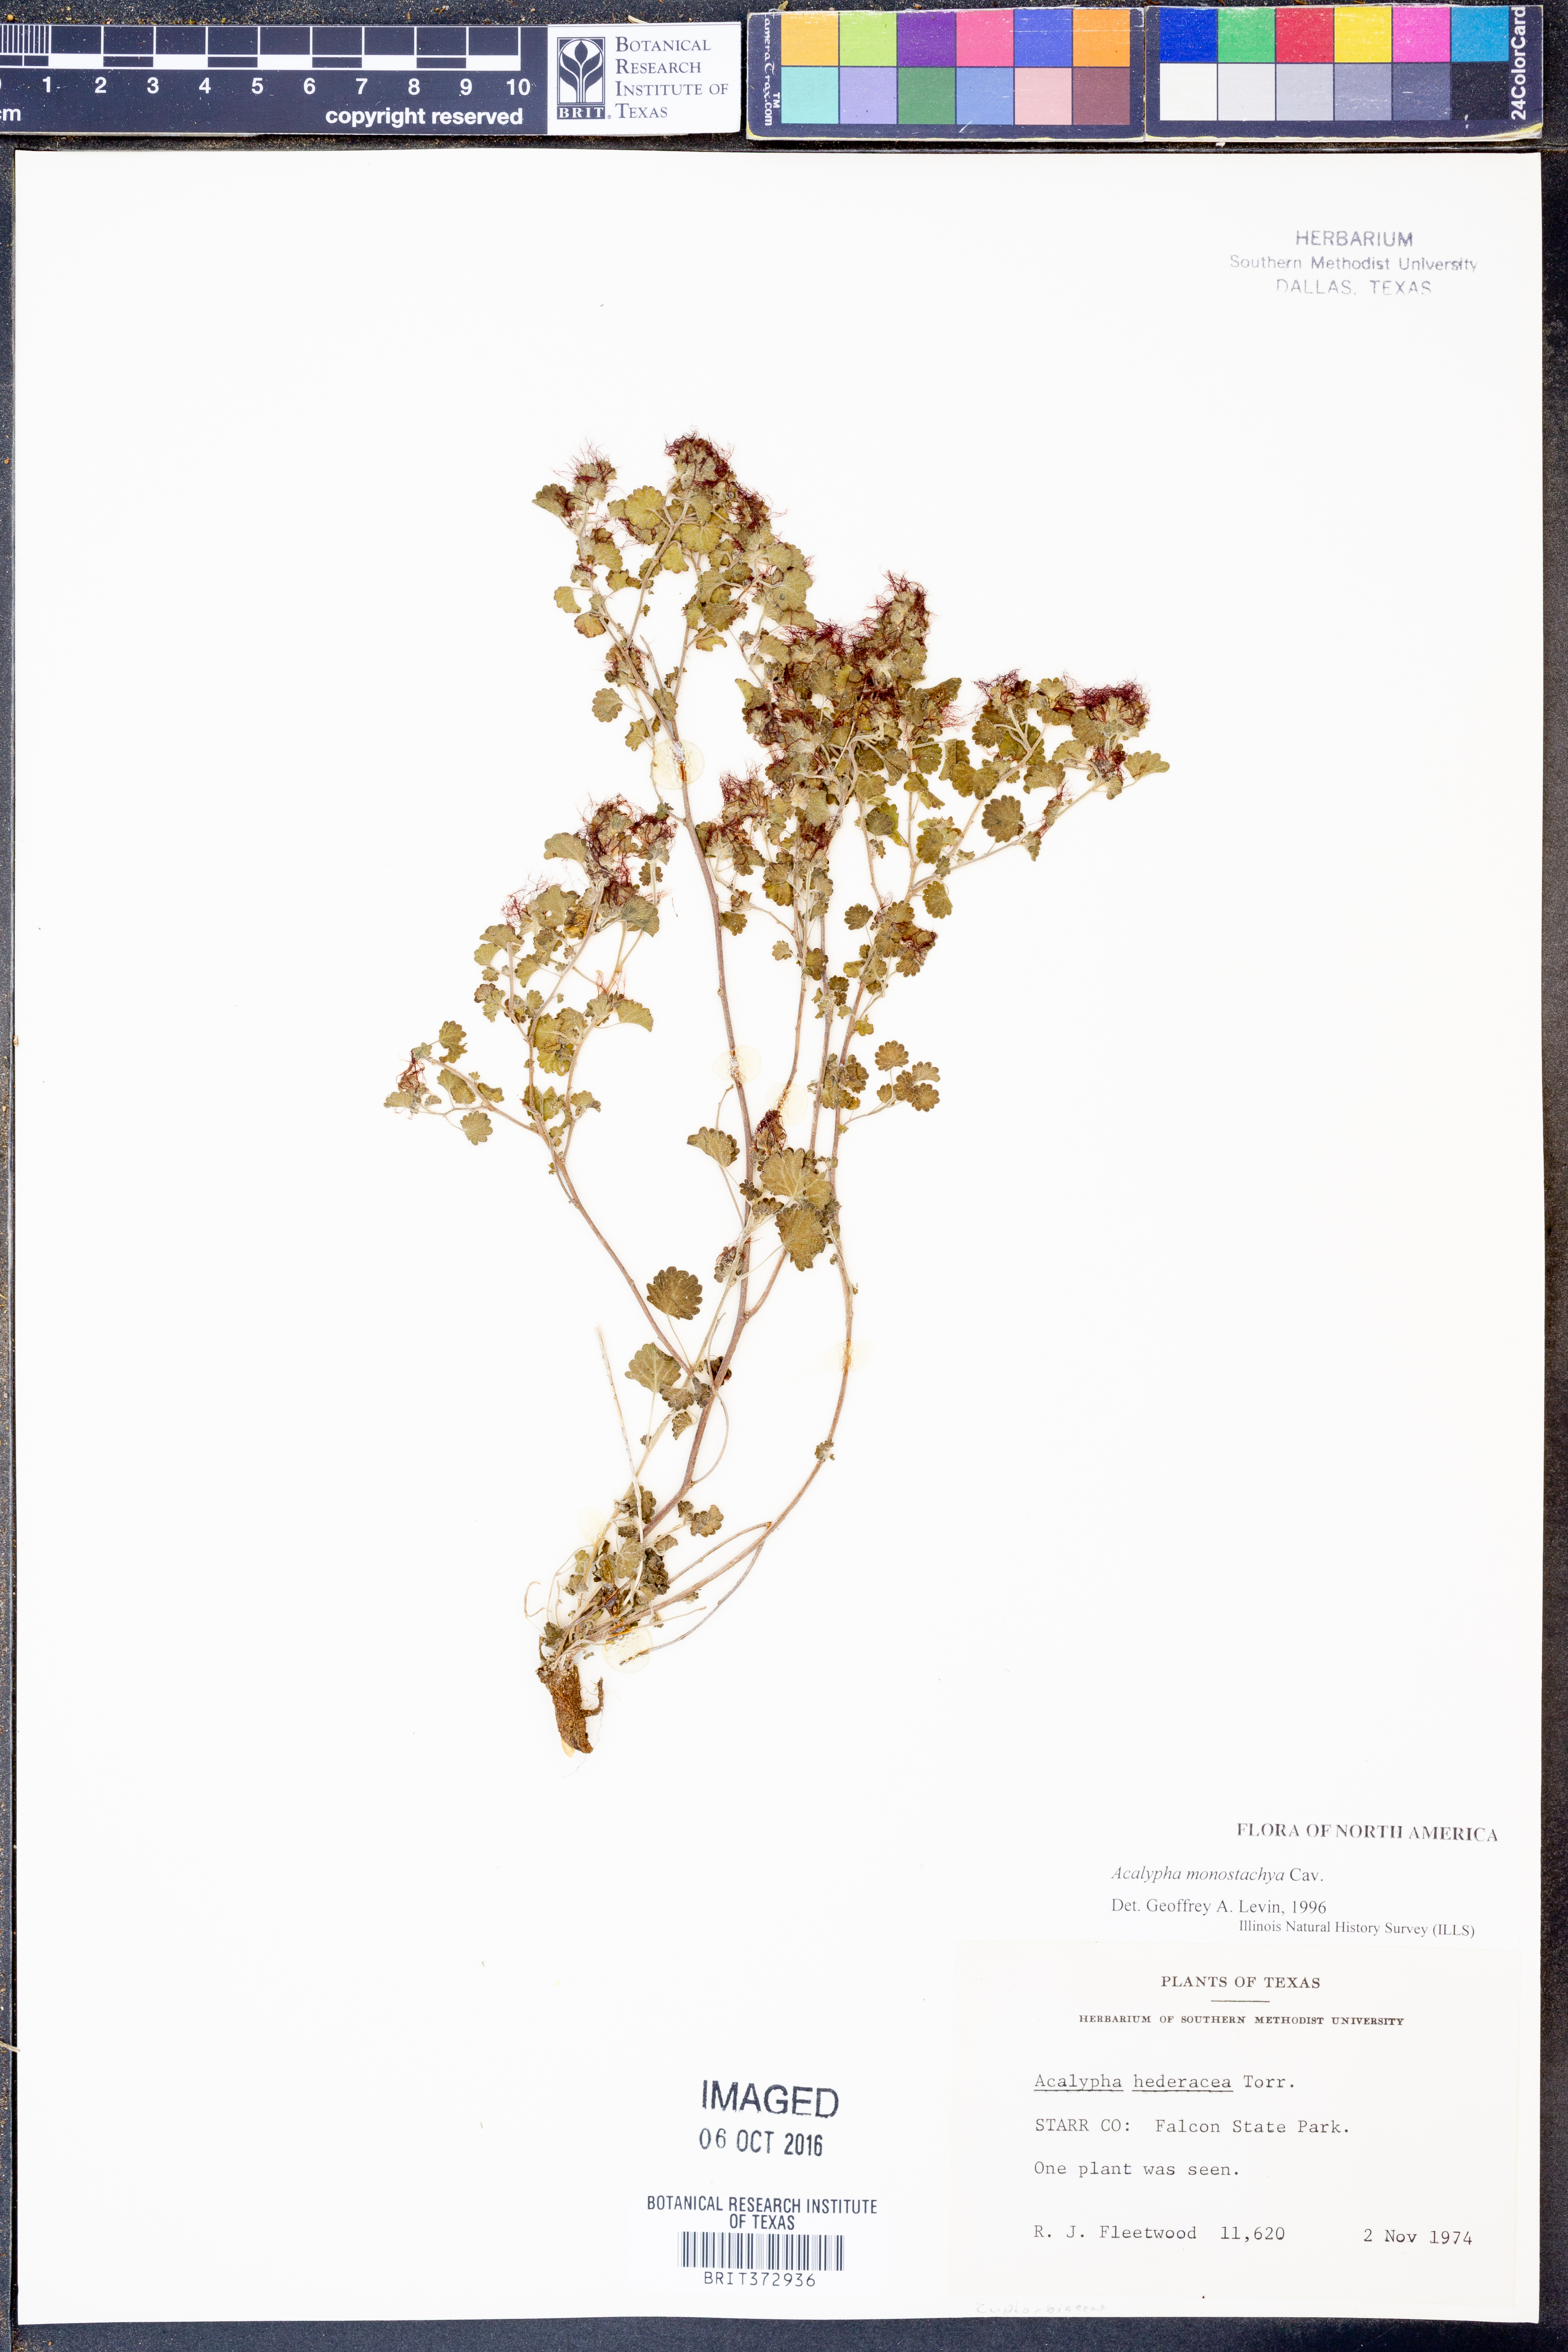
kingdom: Plantae
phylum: Tracheophyta
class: Magnoliopsida
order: Malpighiales
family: Euphorbiaceae
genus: Acalypha
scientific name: Acalypha monostachya
